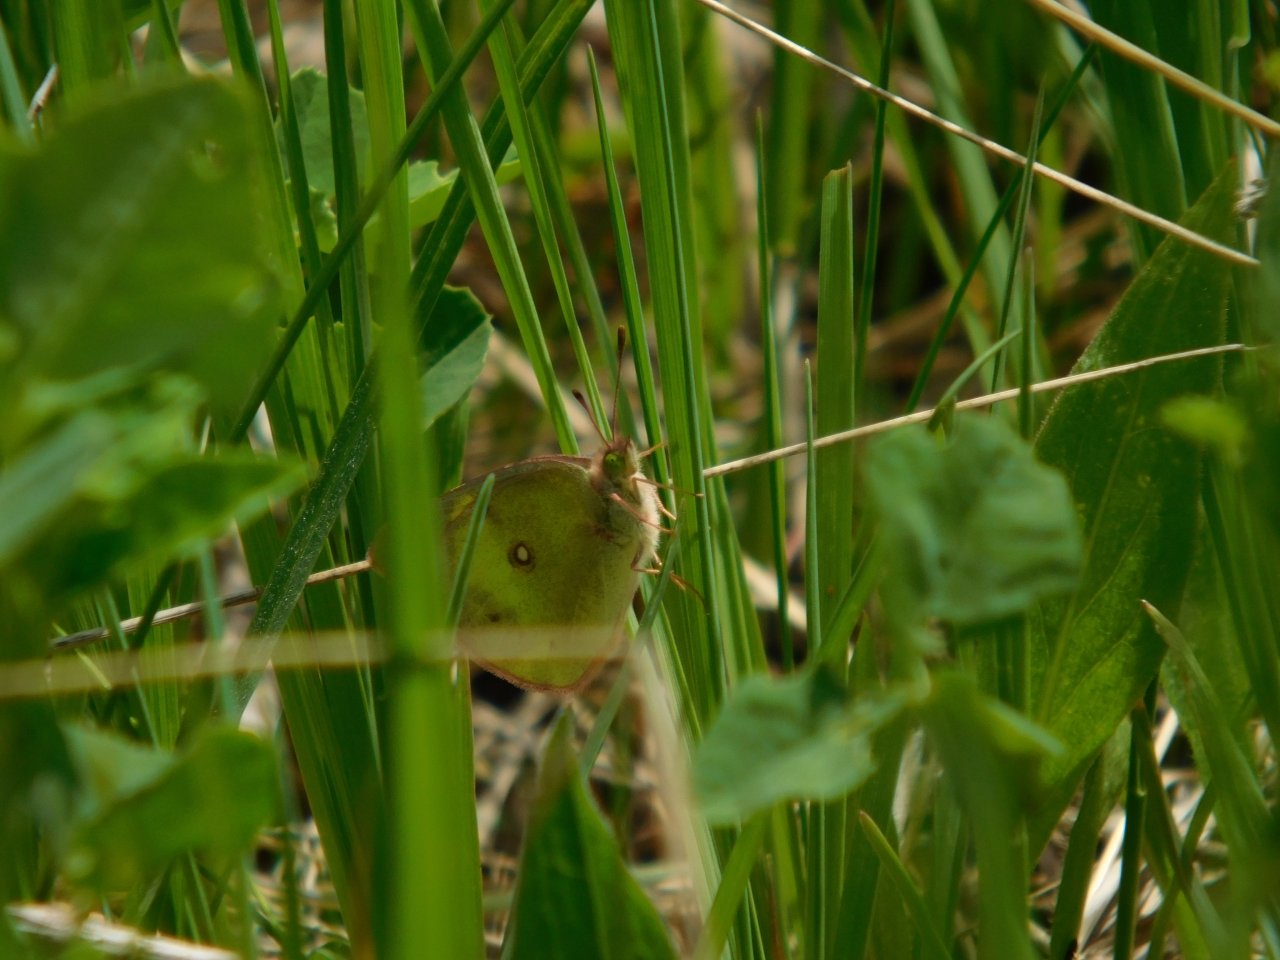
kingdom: Animalia
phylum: Arthropoda
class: Insecta
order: Lepidoptera
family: Pieridae
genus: Colias
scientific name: Colias philodice
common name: Clouded Sulphur
